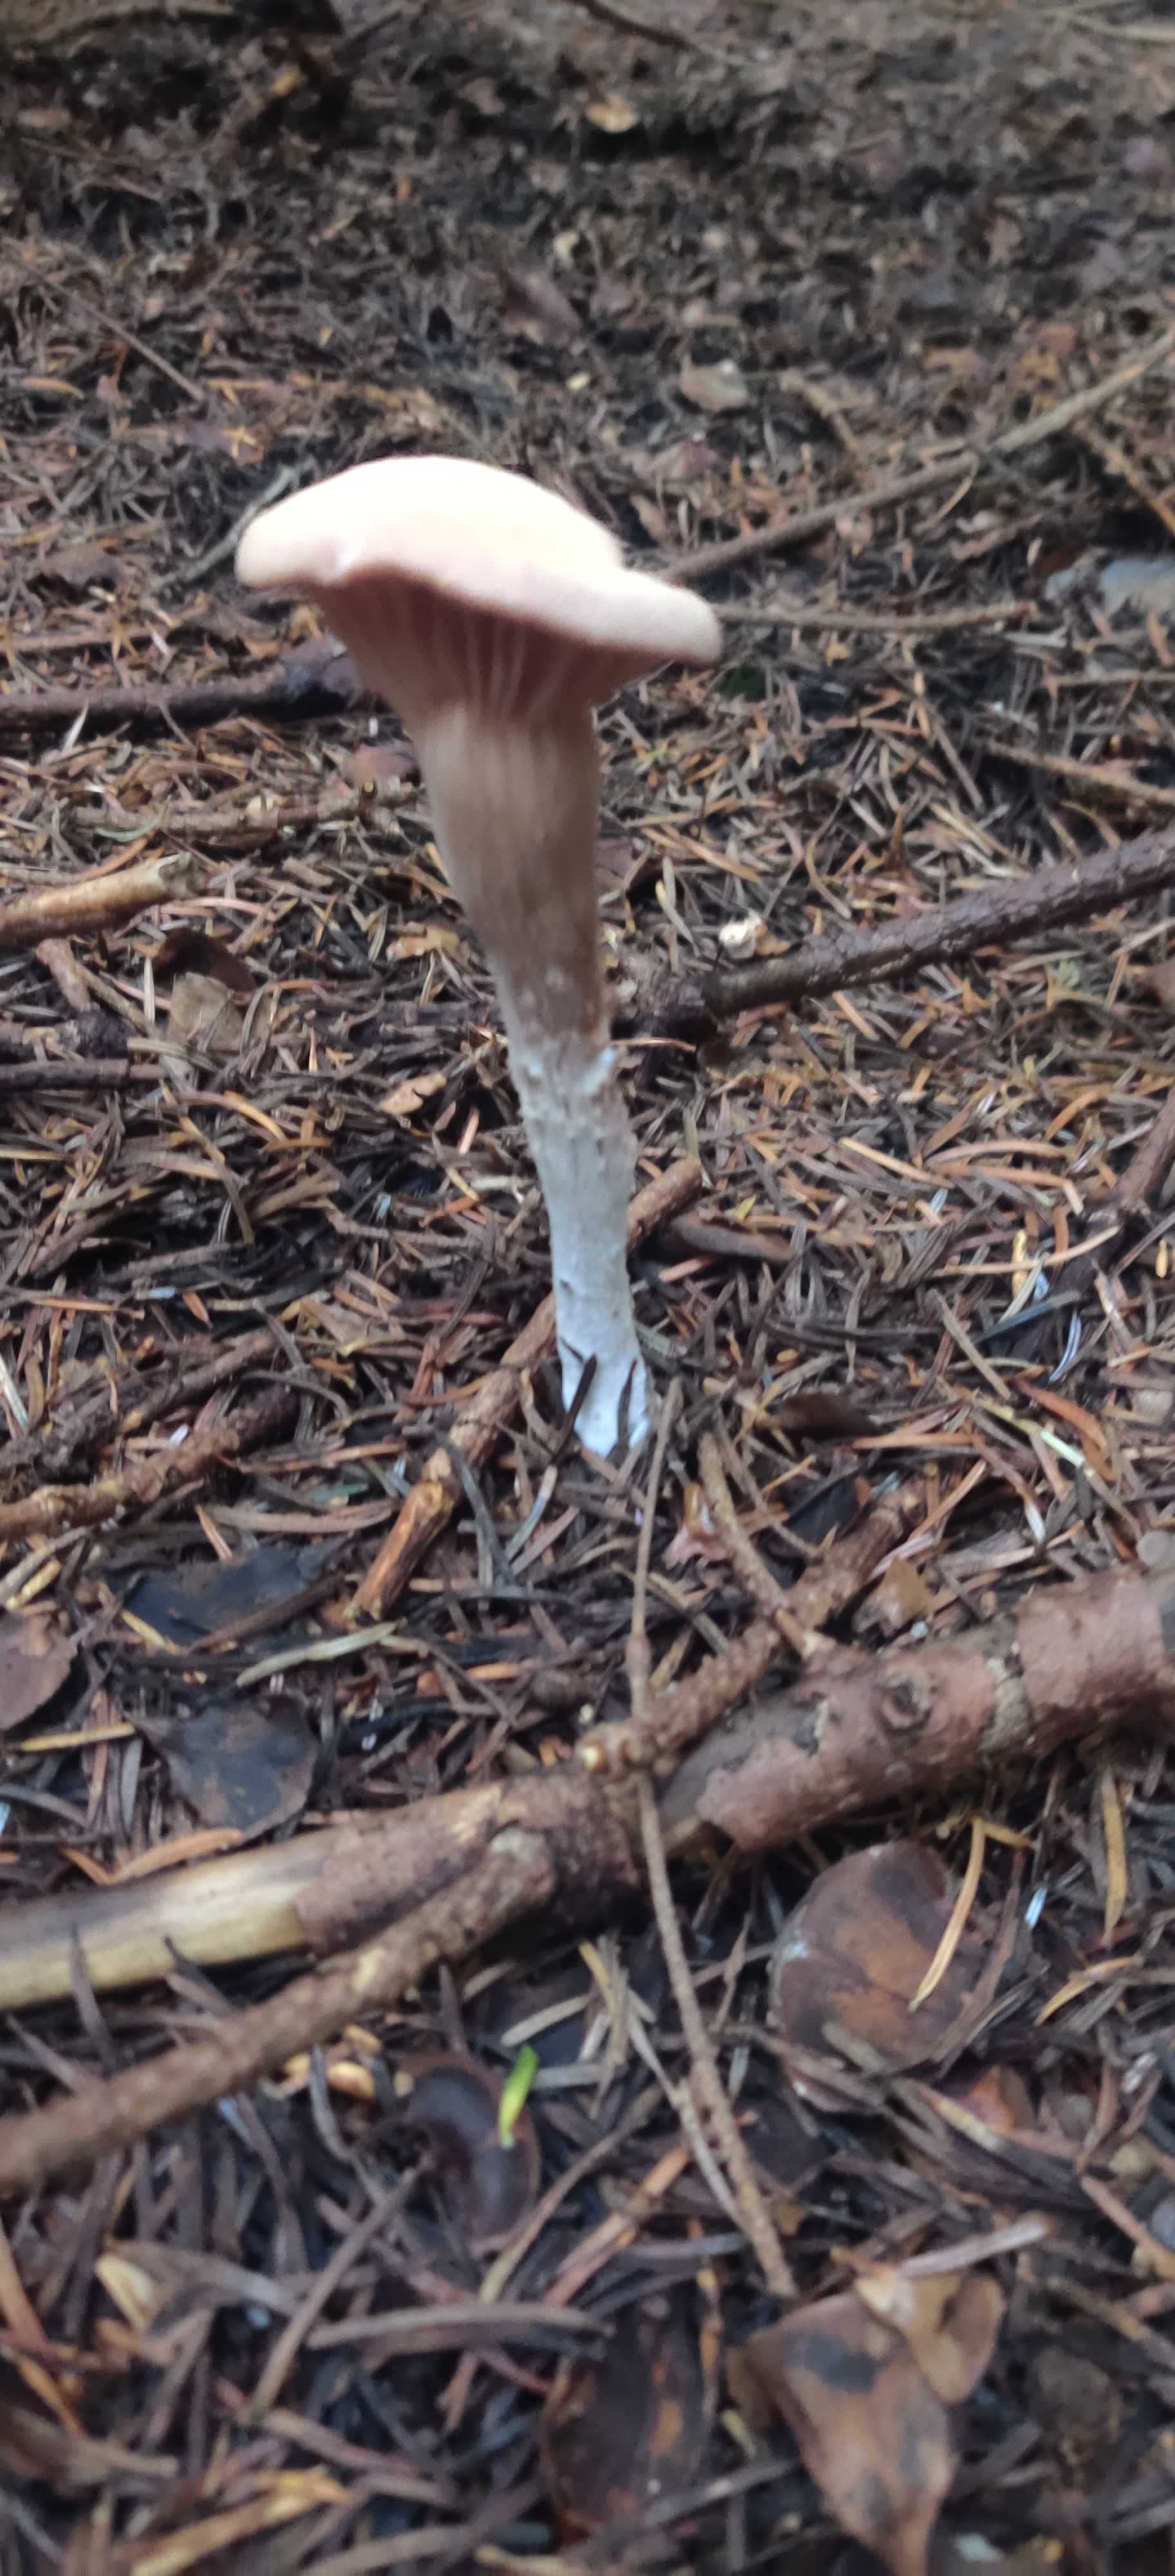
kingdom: Fungi
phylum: Basidiomycota
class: Agaricomycetes
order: Agaricales
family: Hydnangiaceae
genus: Laccaria
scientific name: Laccaria laccata
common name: rød ametysthat
